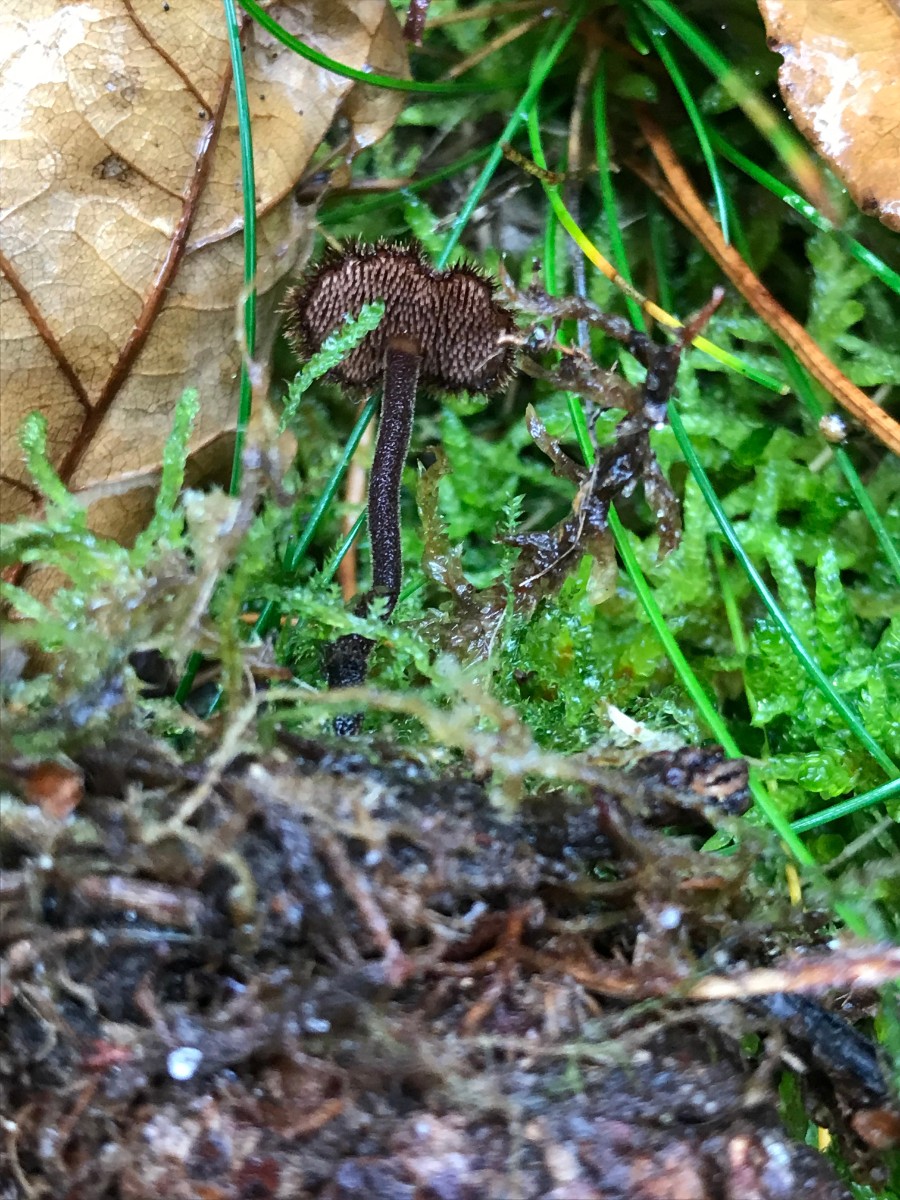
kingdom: Fungi
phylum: Basidiomycota
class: Agaricomycetes
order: Russulales
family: Auriscalpiaceae
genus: Auriscalpium
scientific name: Auriscalpium vulgare
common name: koglepigsvamp
